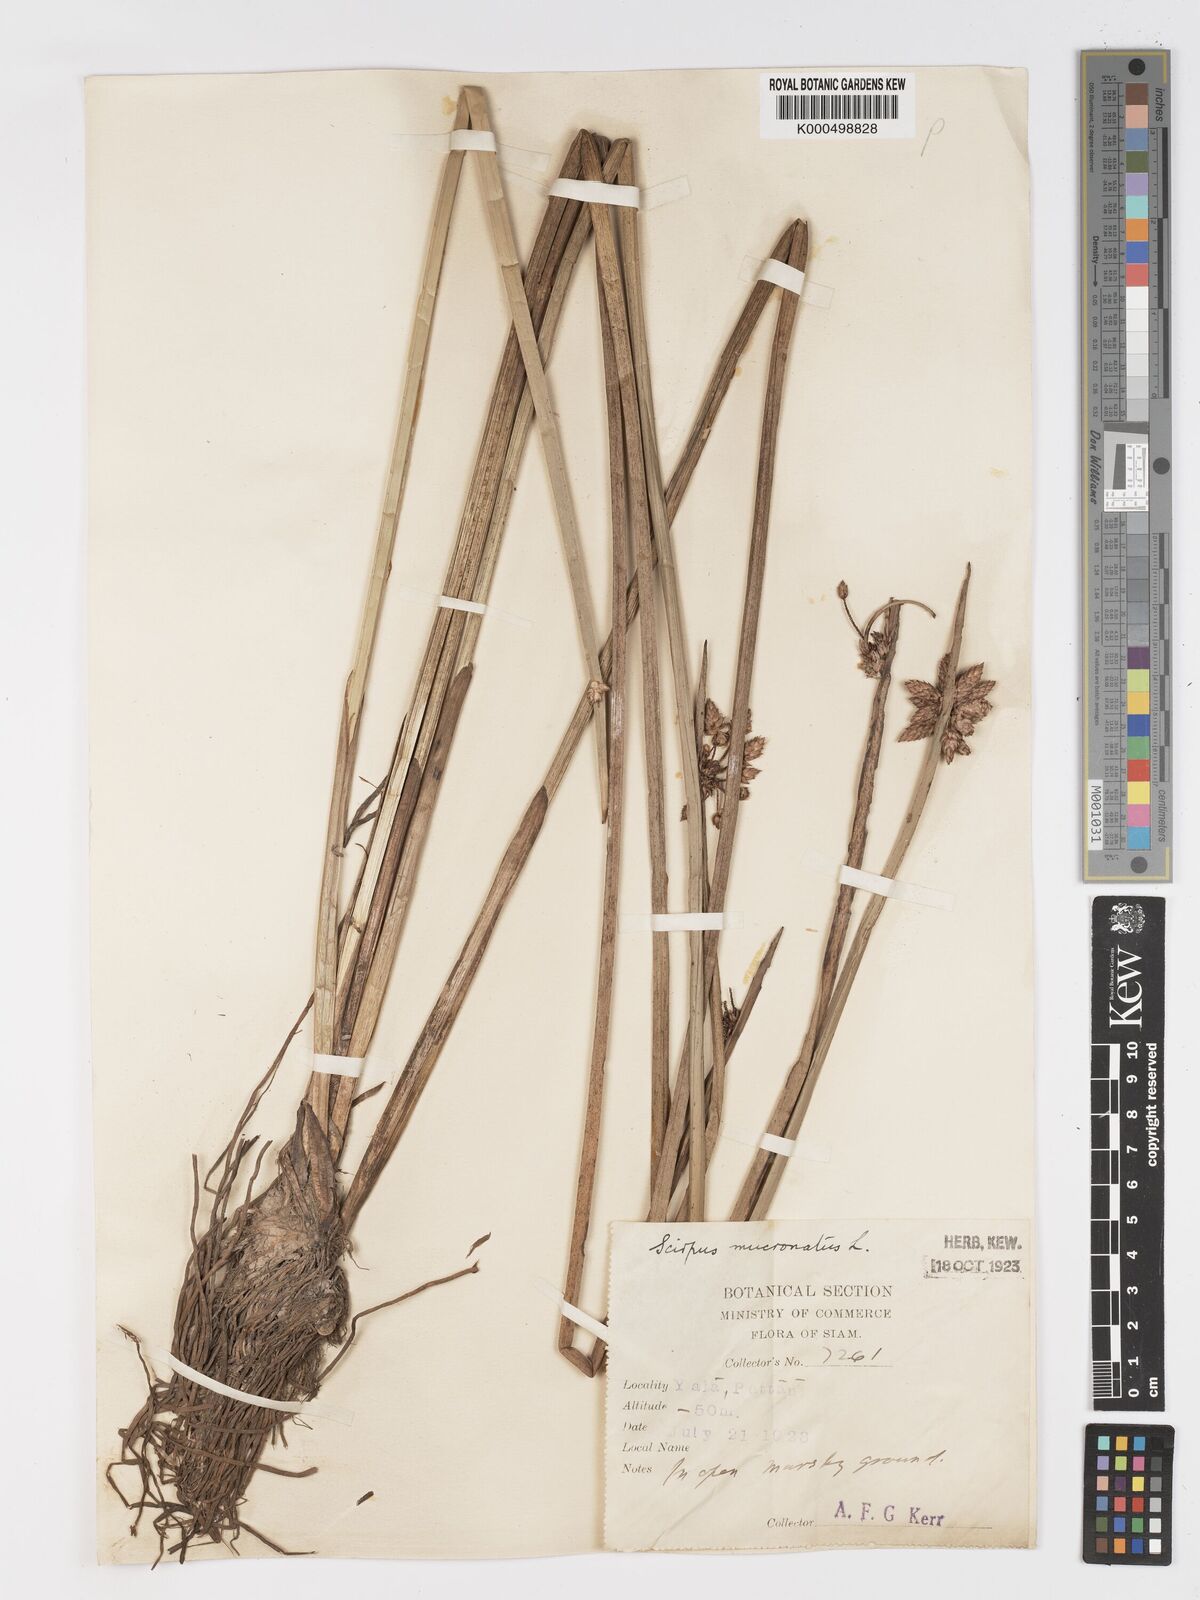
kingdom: Plantae
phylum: Tracheophyta
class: Liliopsida
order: Poales
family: Cyperaceae
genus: Schoenoplectiella
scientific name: Schoenoplectiella mucronata
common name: Bog bulrush
